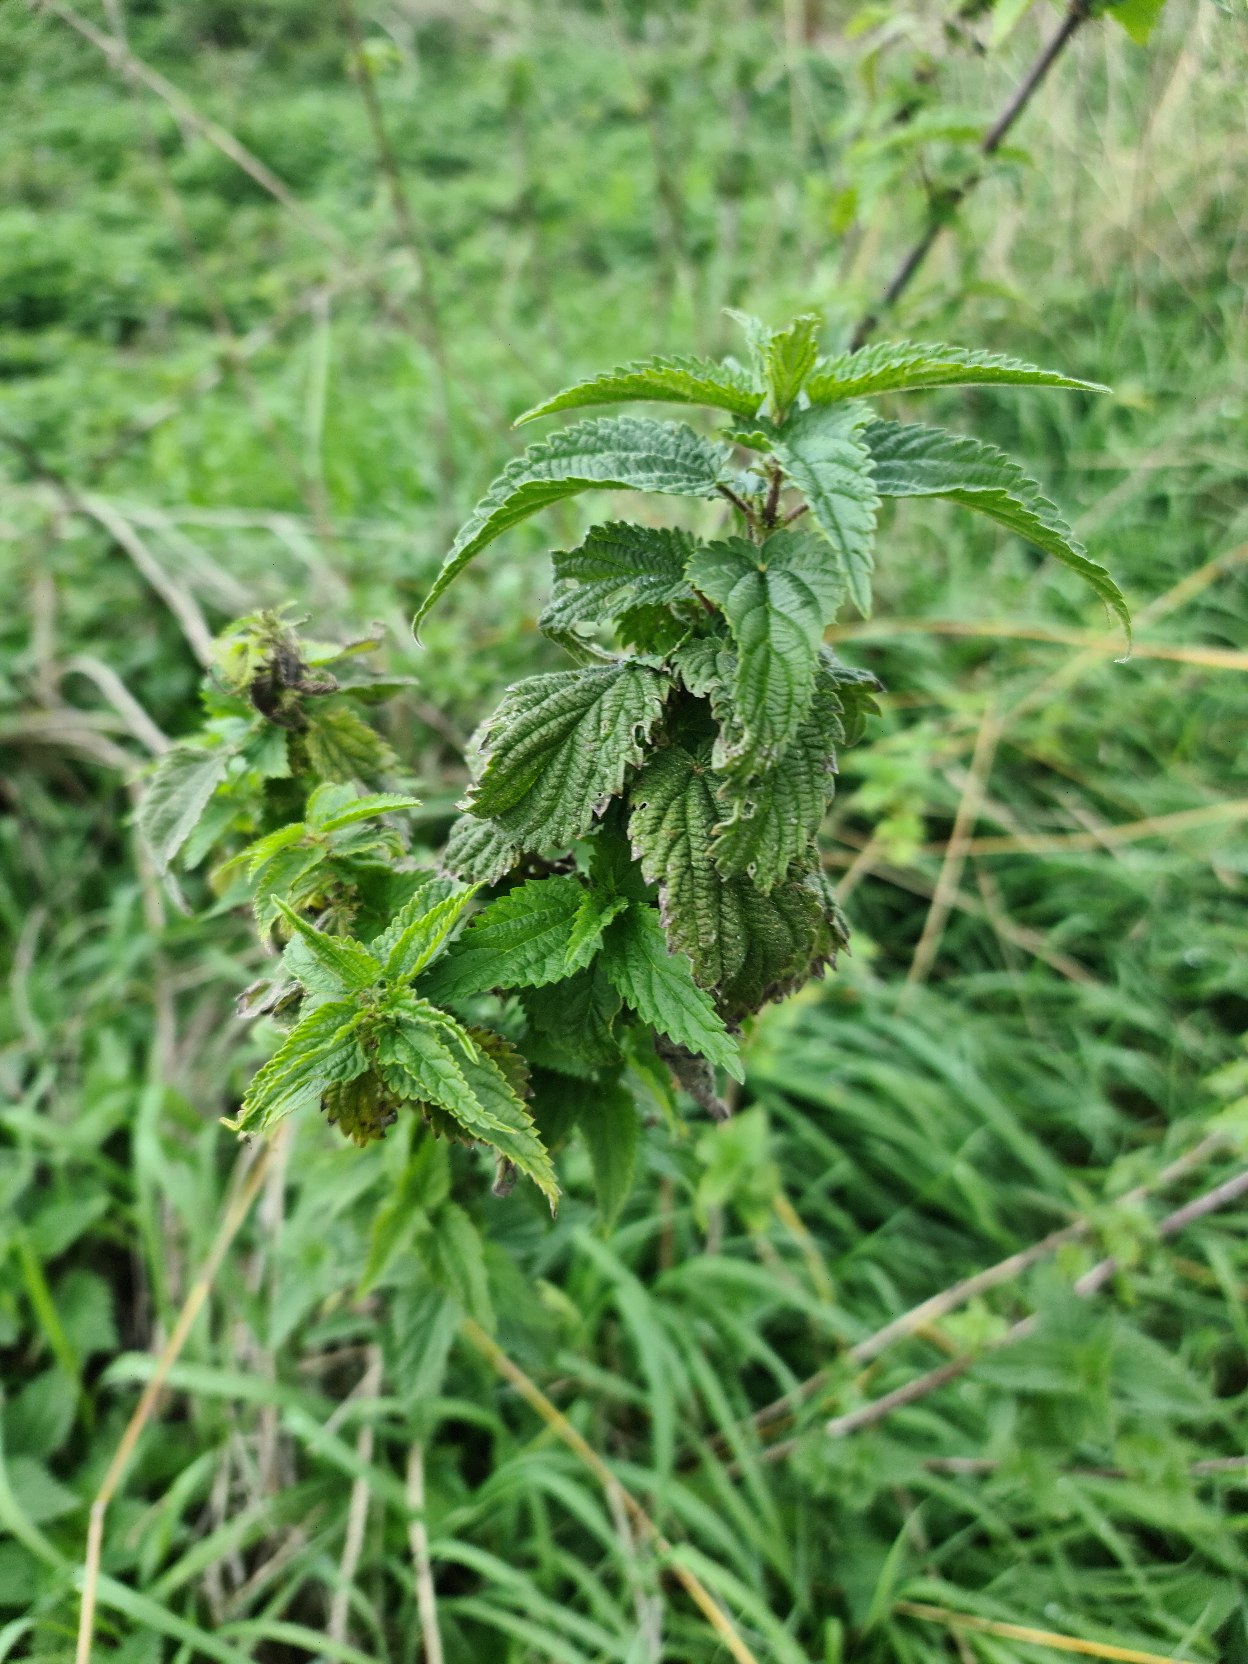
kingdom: Plantae
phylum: Tracheophyta
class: Magnoliopsida
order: Rosales
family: Urticaceae
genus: Urtica
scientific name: Urtica dioica
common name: Stor nælde
